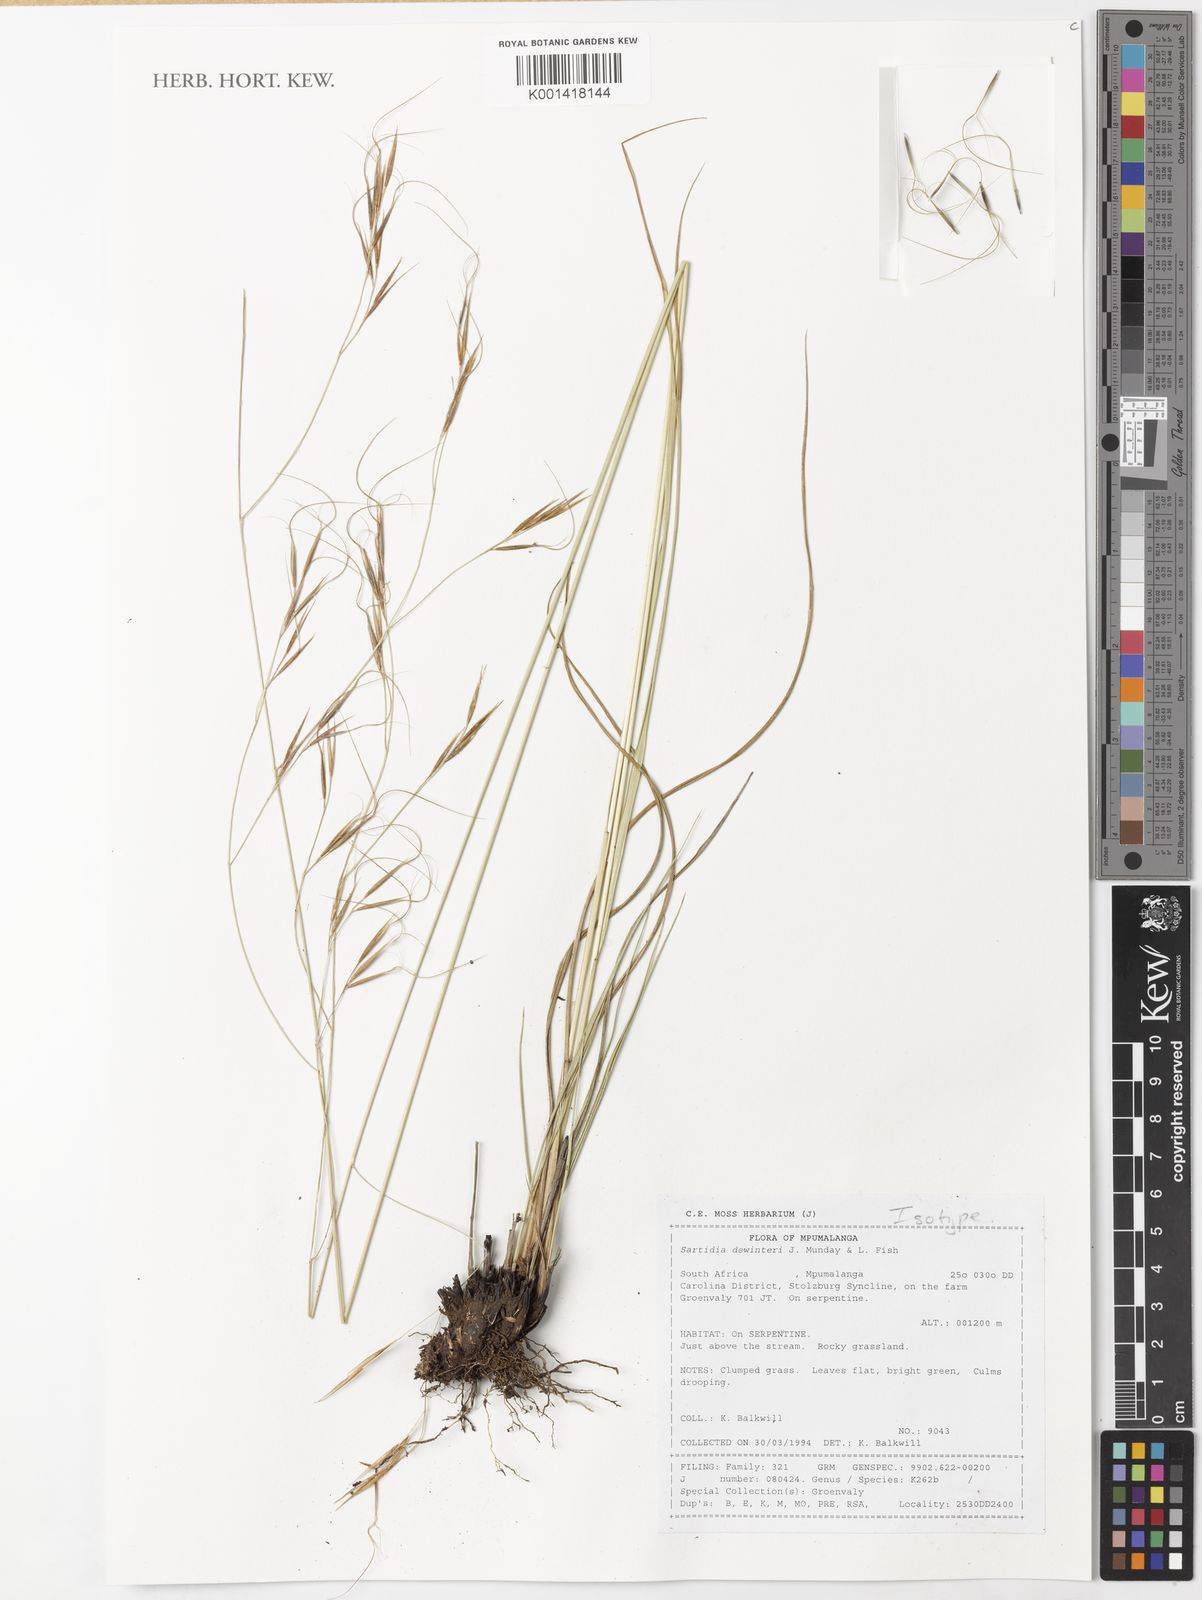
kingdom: Plantae
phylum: Tracheophyta
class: Liliopsida
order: Poales
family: Poaceae
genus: Sartidia
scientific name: Sartidia dewinteri
